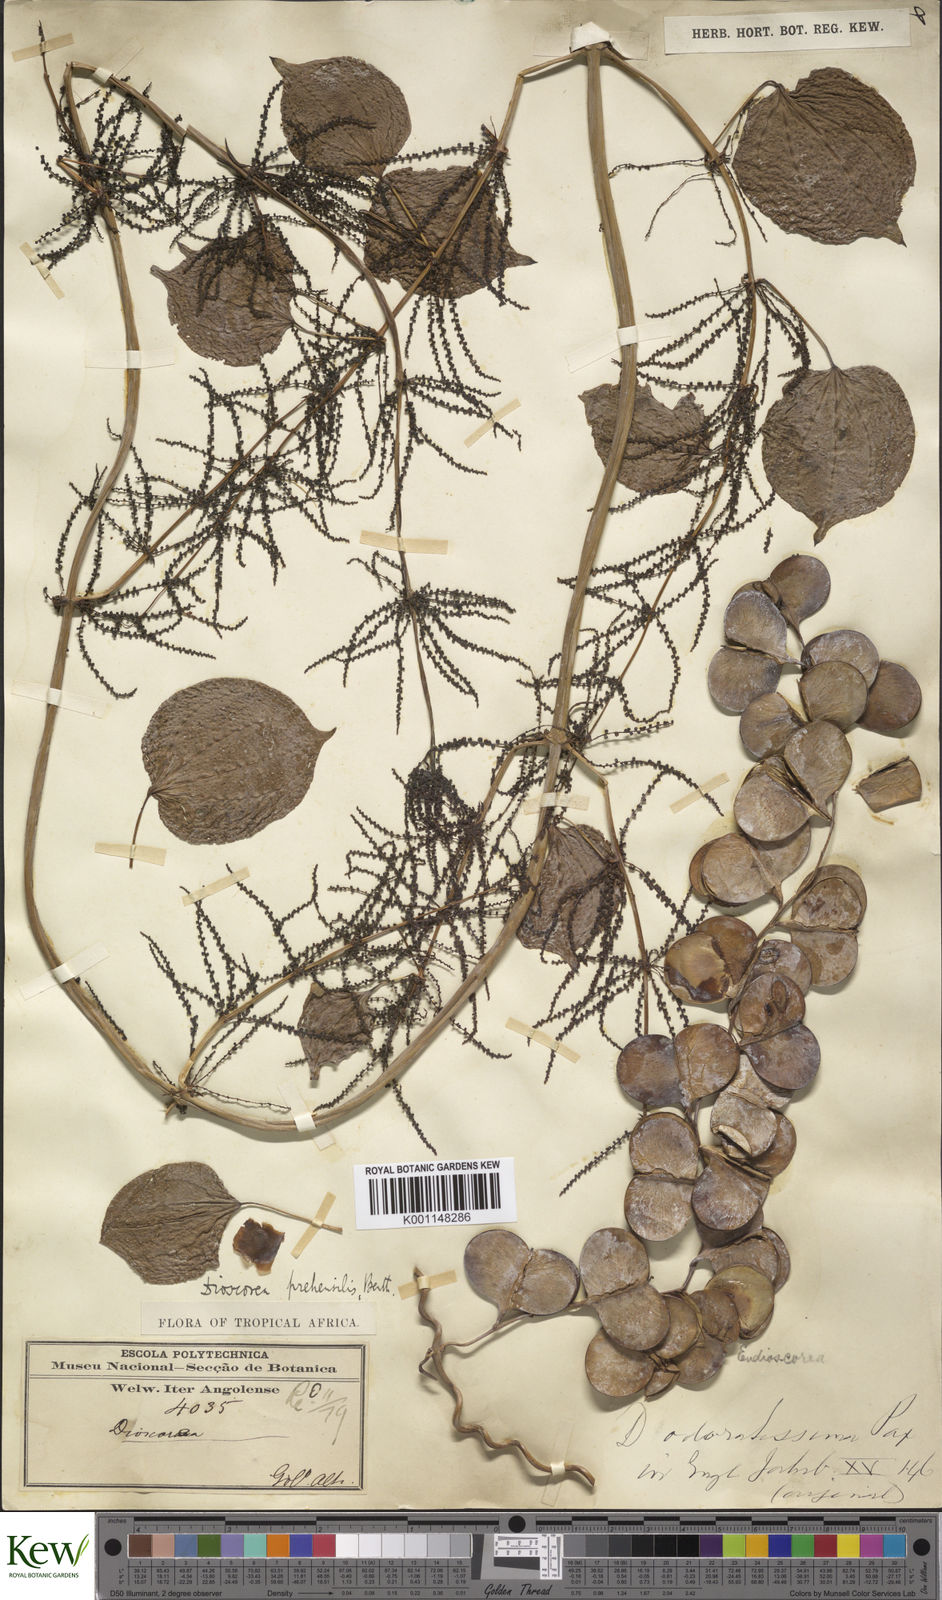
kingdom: Plantae
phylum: Tracheophyta
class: Liliopsida
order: Dioscoreales
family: Dioscoreaceae
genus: Dioscorea
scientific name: Dioscorea praehensilis
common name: Bush yam
